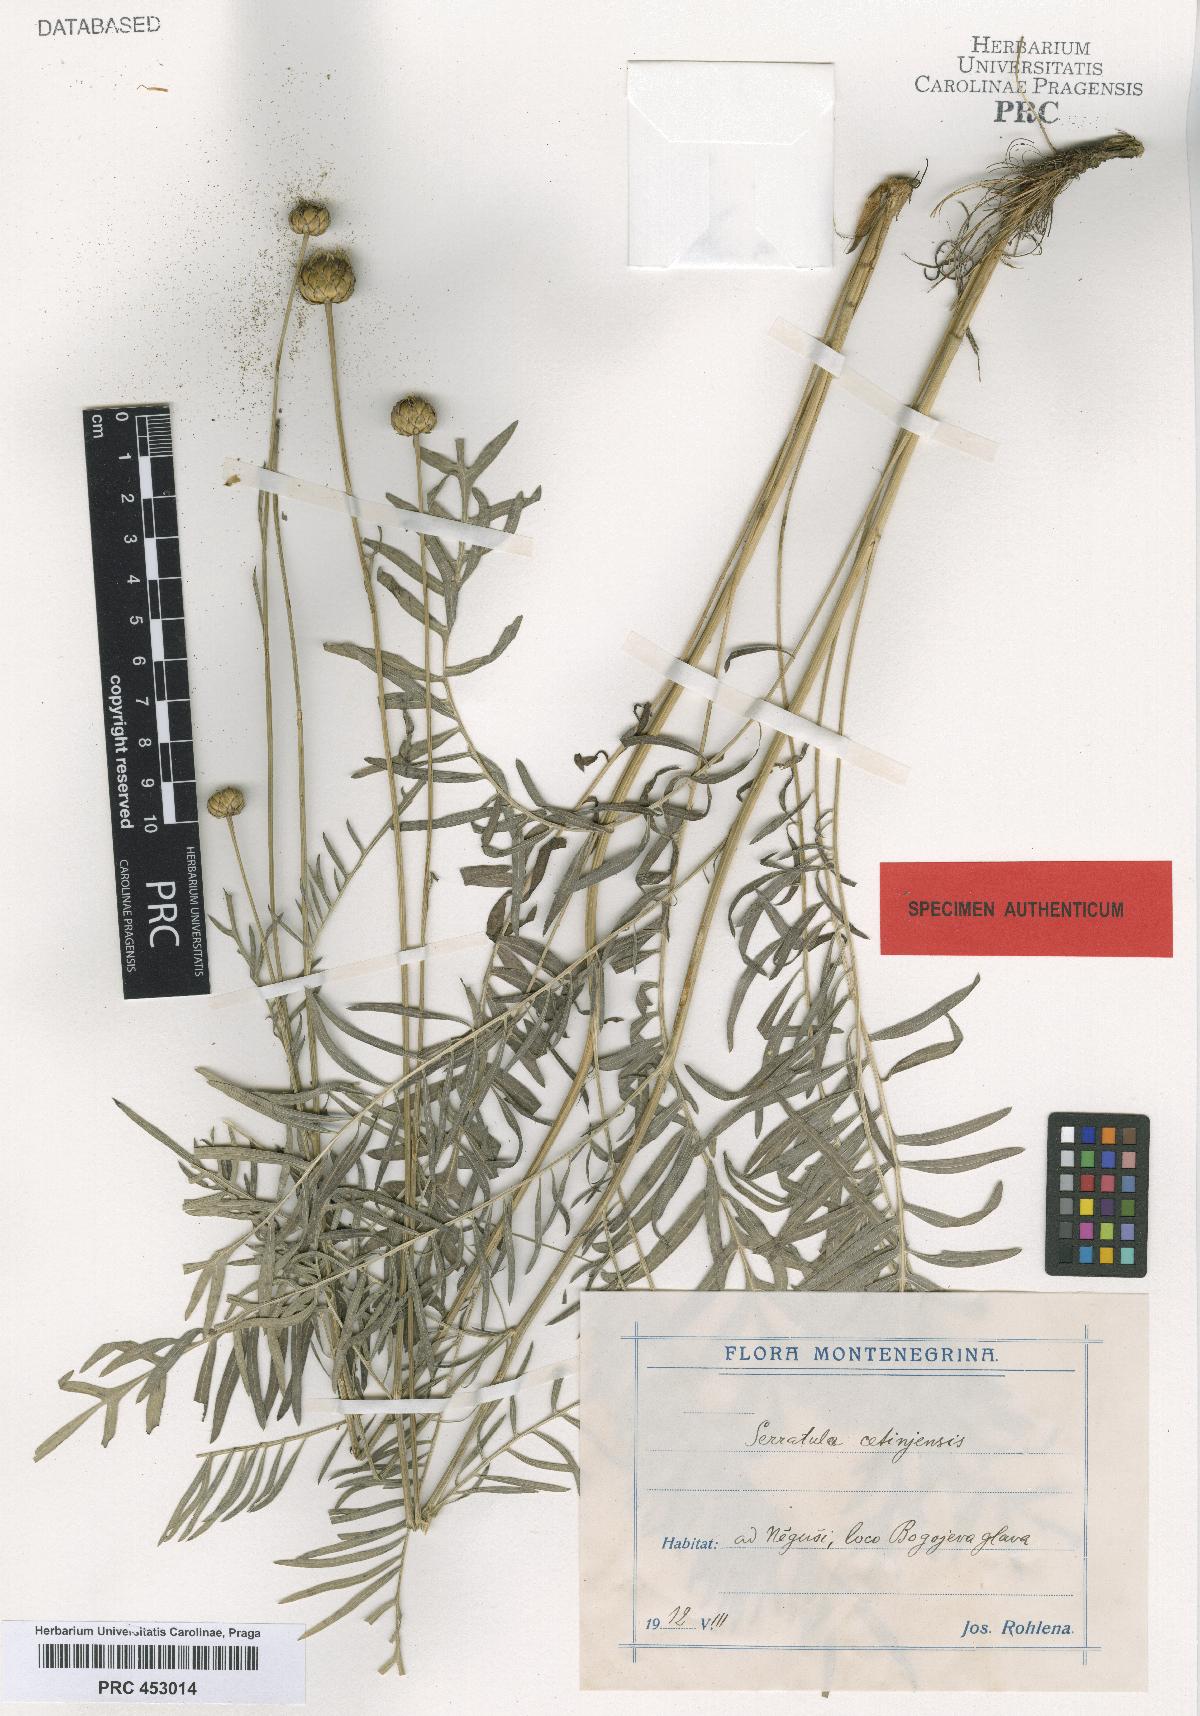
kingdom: Plantae
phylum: Tracheophyta
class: Magnoliopsida
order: Asterales
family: Asteraceae
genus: Klasea
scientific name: Klasea radiata
